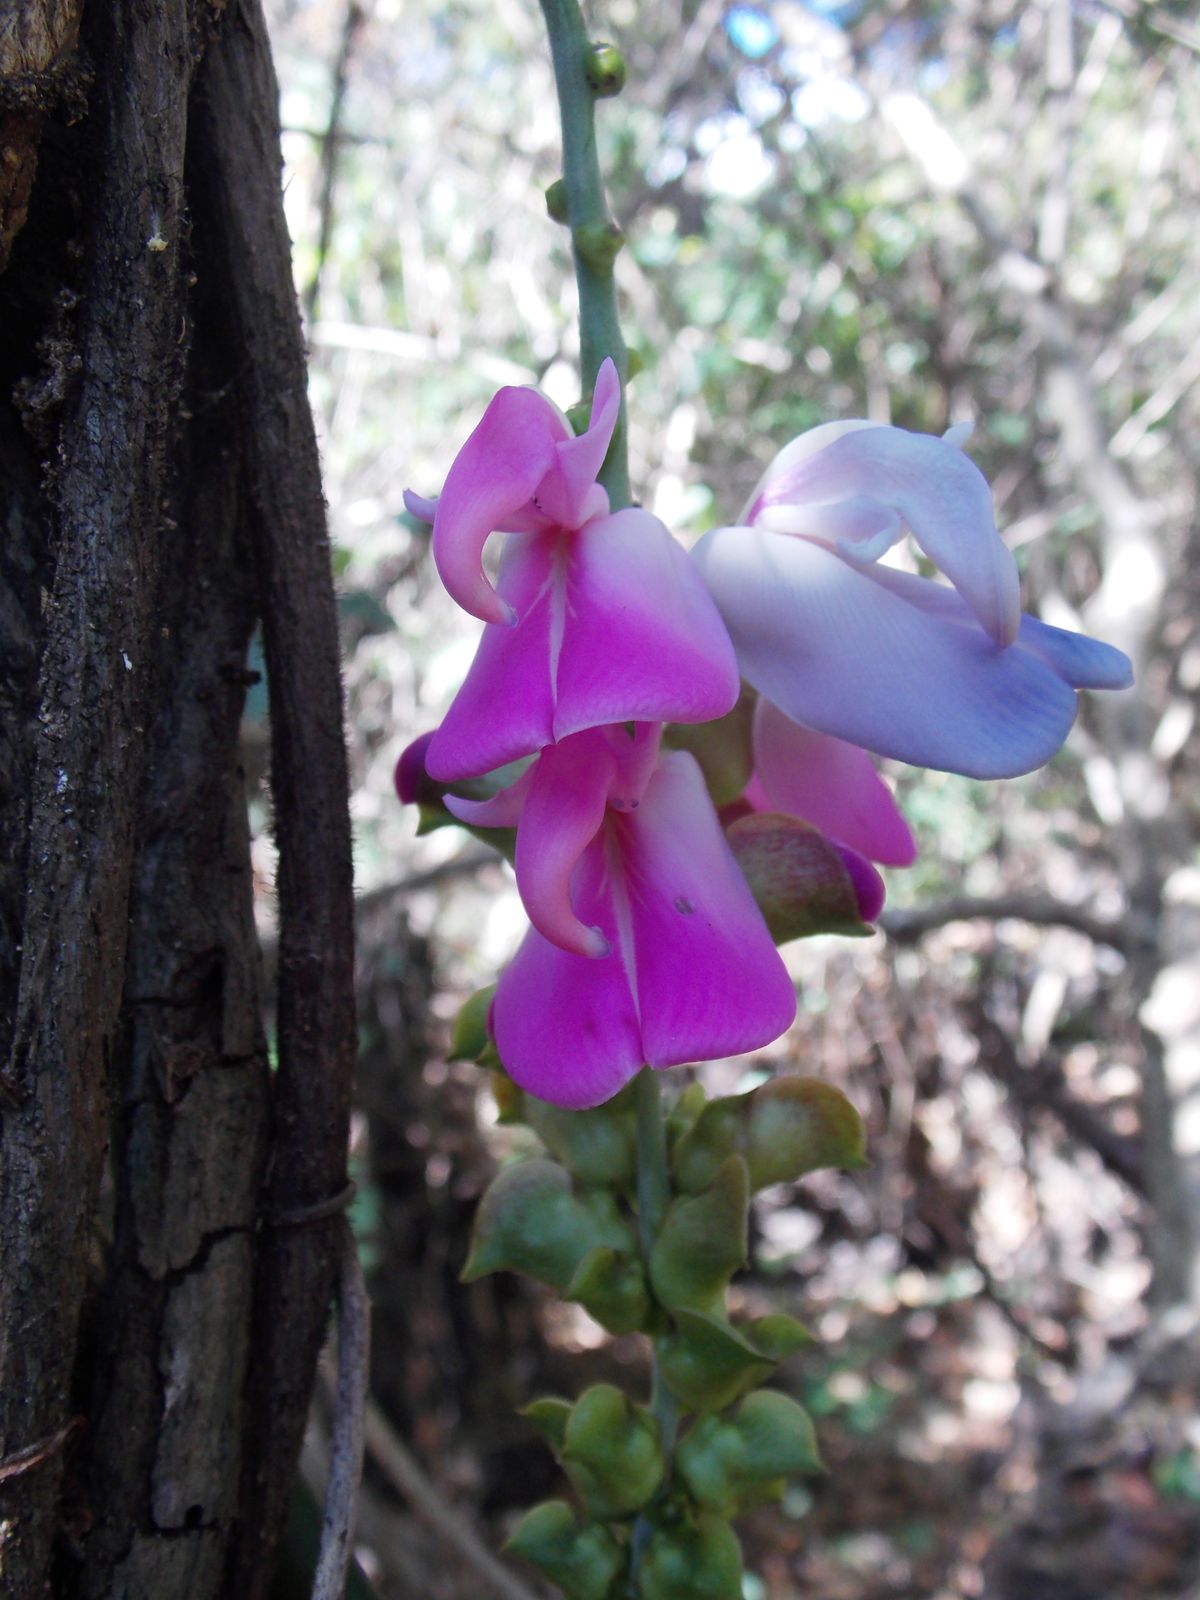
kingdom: Plantae
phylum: Tracheophyta
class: Magnoliopsida
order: Fabales
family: Fabaceae
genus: Canavalia
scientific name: Canavalia brasiliensis
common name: Barbicou-bean
